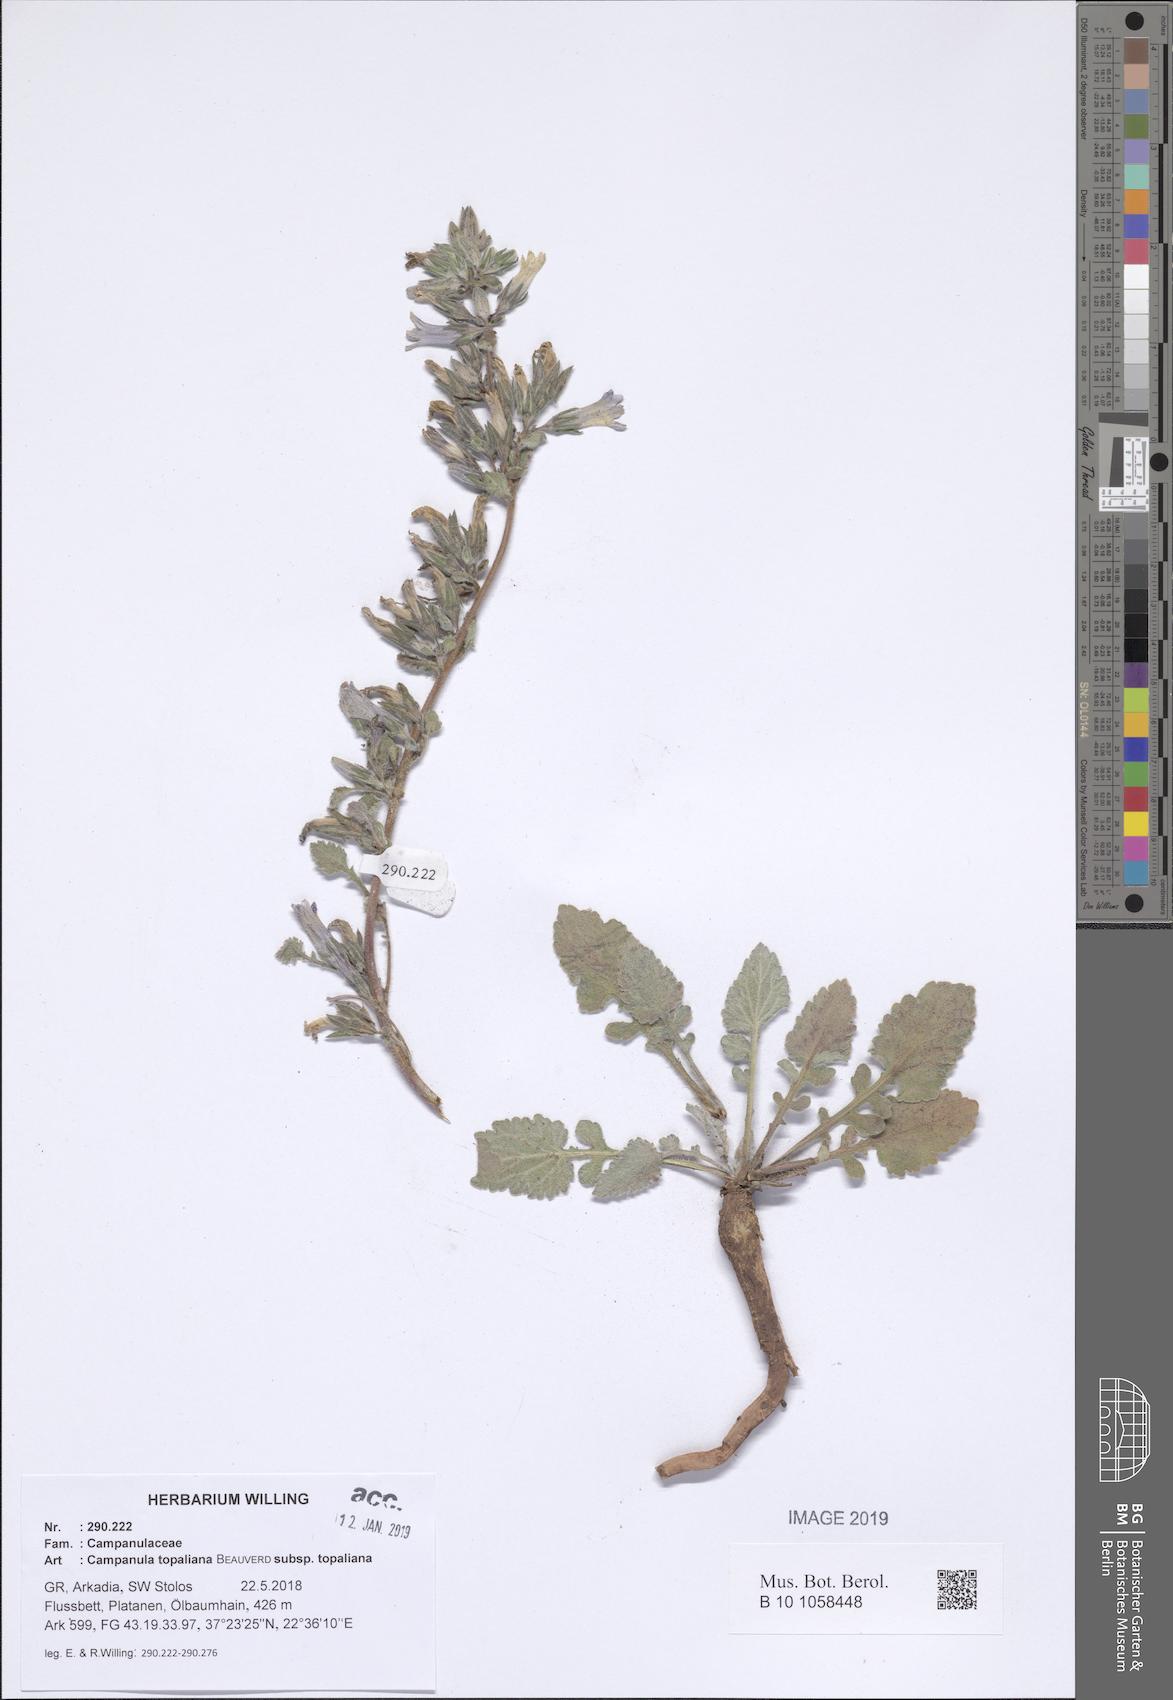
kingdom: Plantae
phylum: Tracheophyta
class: Magnoliopsida
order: Asterales
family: Campanulaceae
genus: Campanula
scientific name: Campanula topaliana
